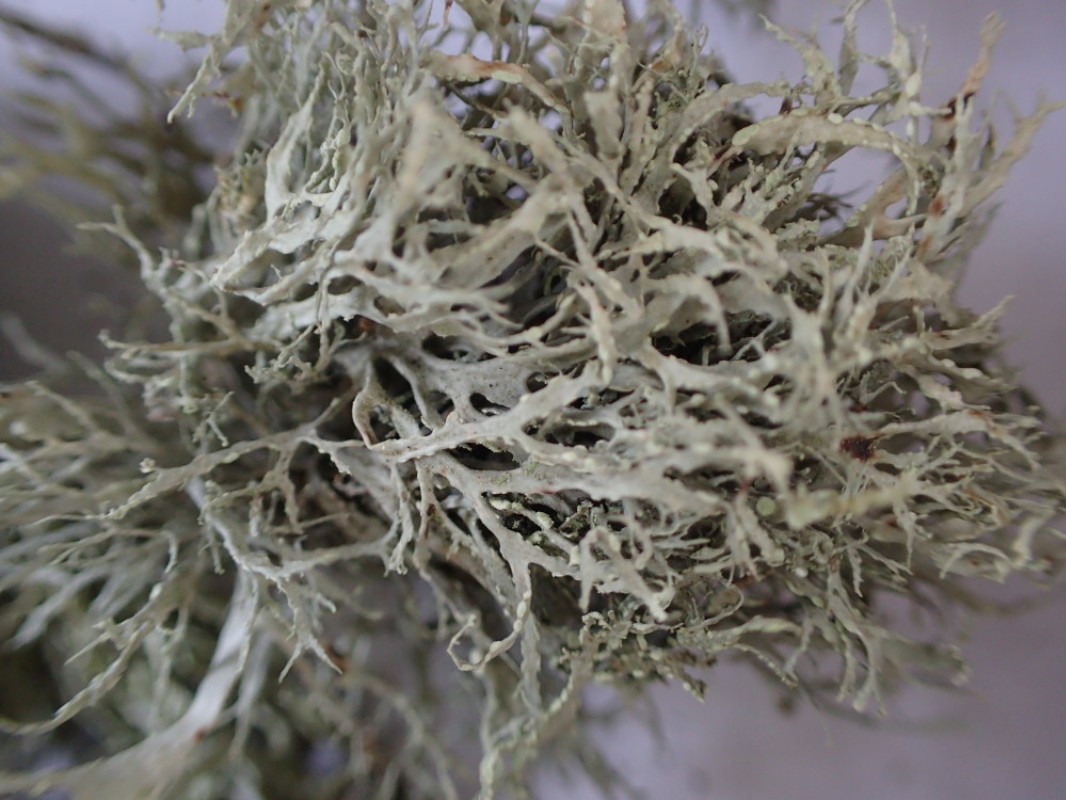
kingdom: Fungi
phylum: Ascomycota
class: Lecanoromycetes
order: Lecanorales
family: Ramalinaceae
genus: Ramalina
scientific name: Ramalina farinacea
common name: melet grenlav
